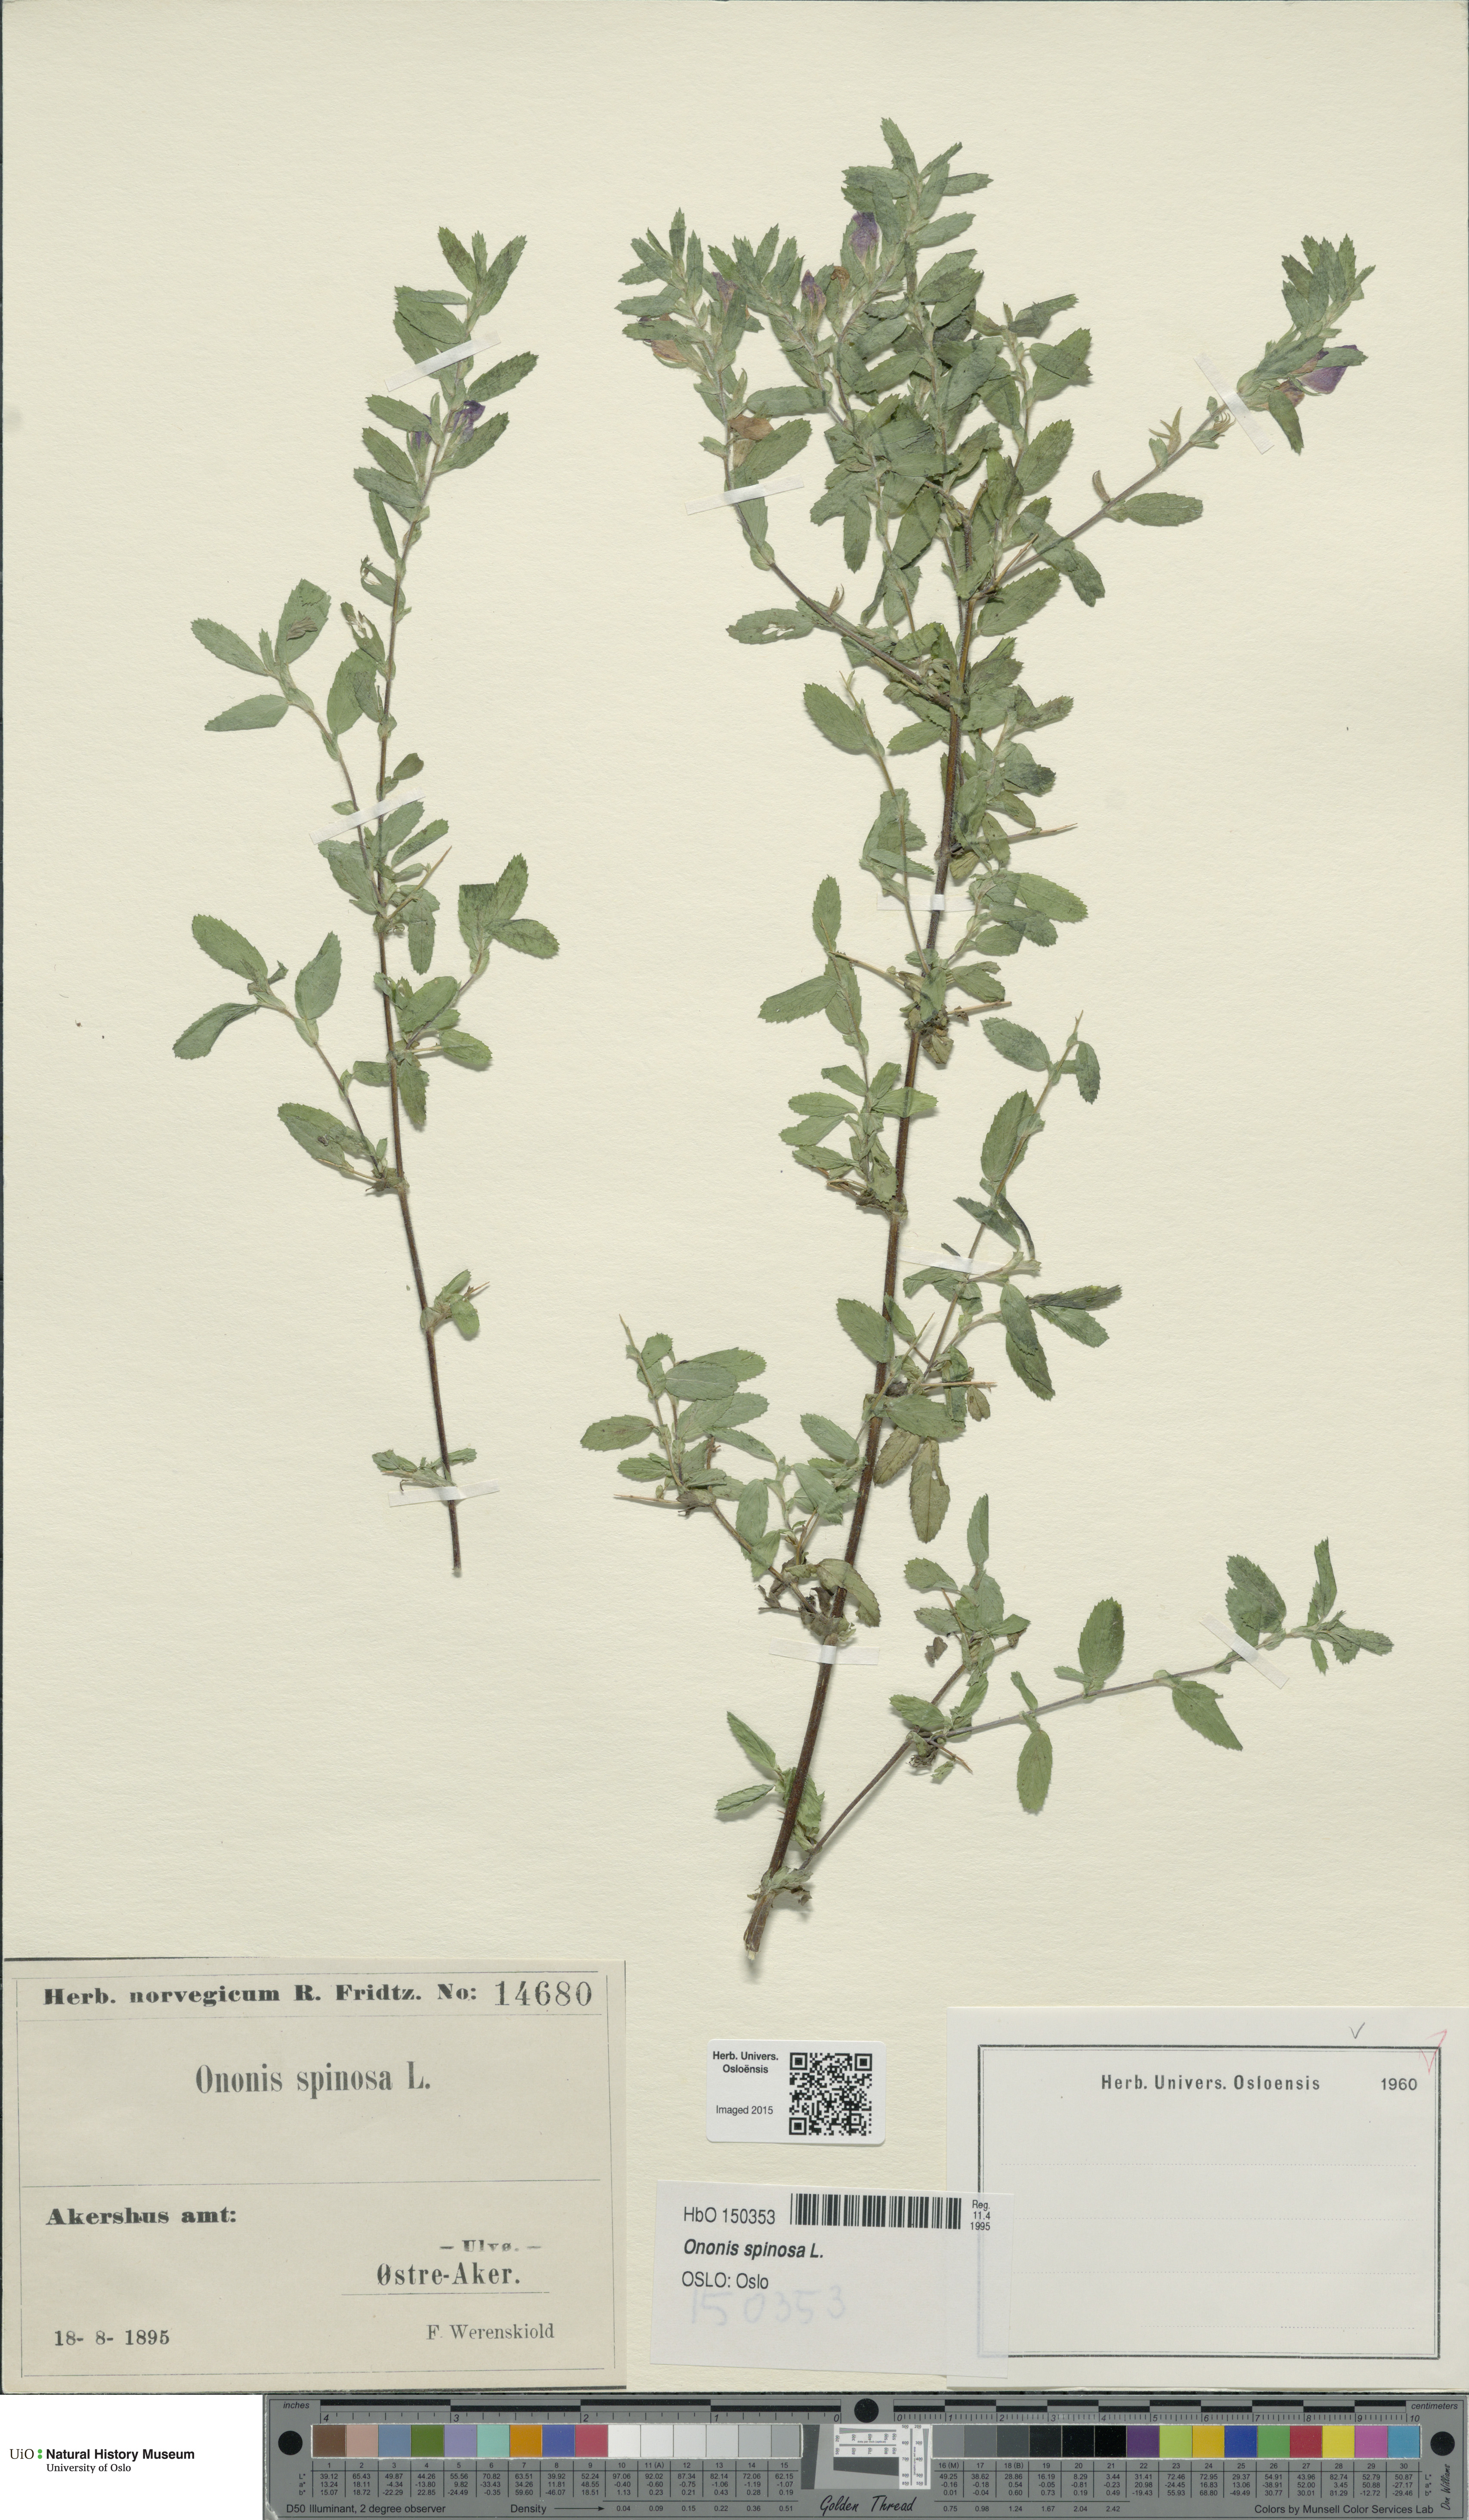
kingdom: Plantae
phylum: Tracheophyta
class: Magnoliopsida
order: Fabales
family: Fabaceae
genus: Ononis
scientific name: Ononis spinosa
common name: Spiny restharrow
